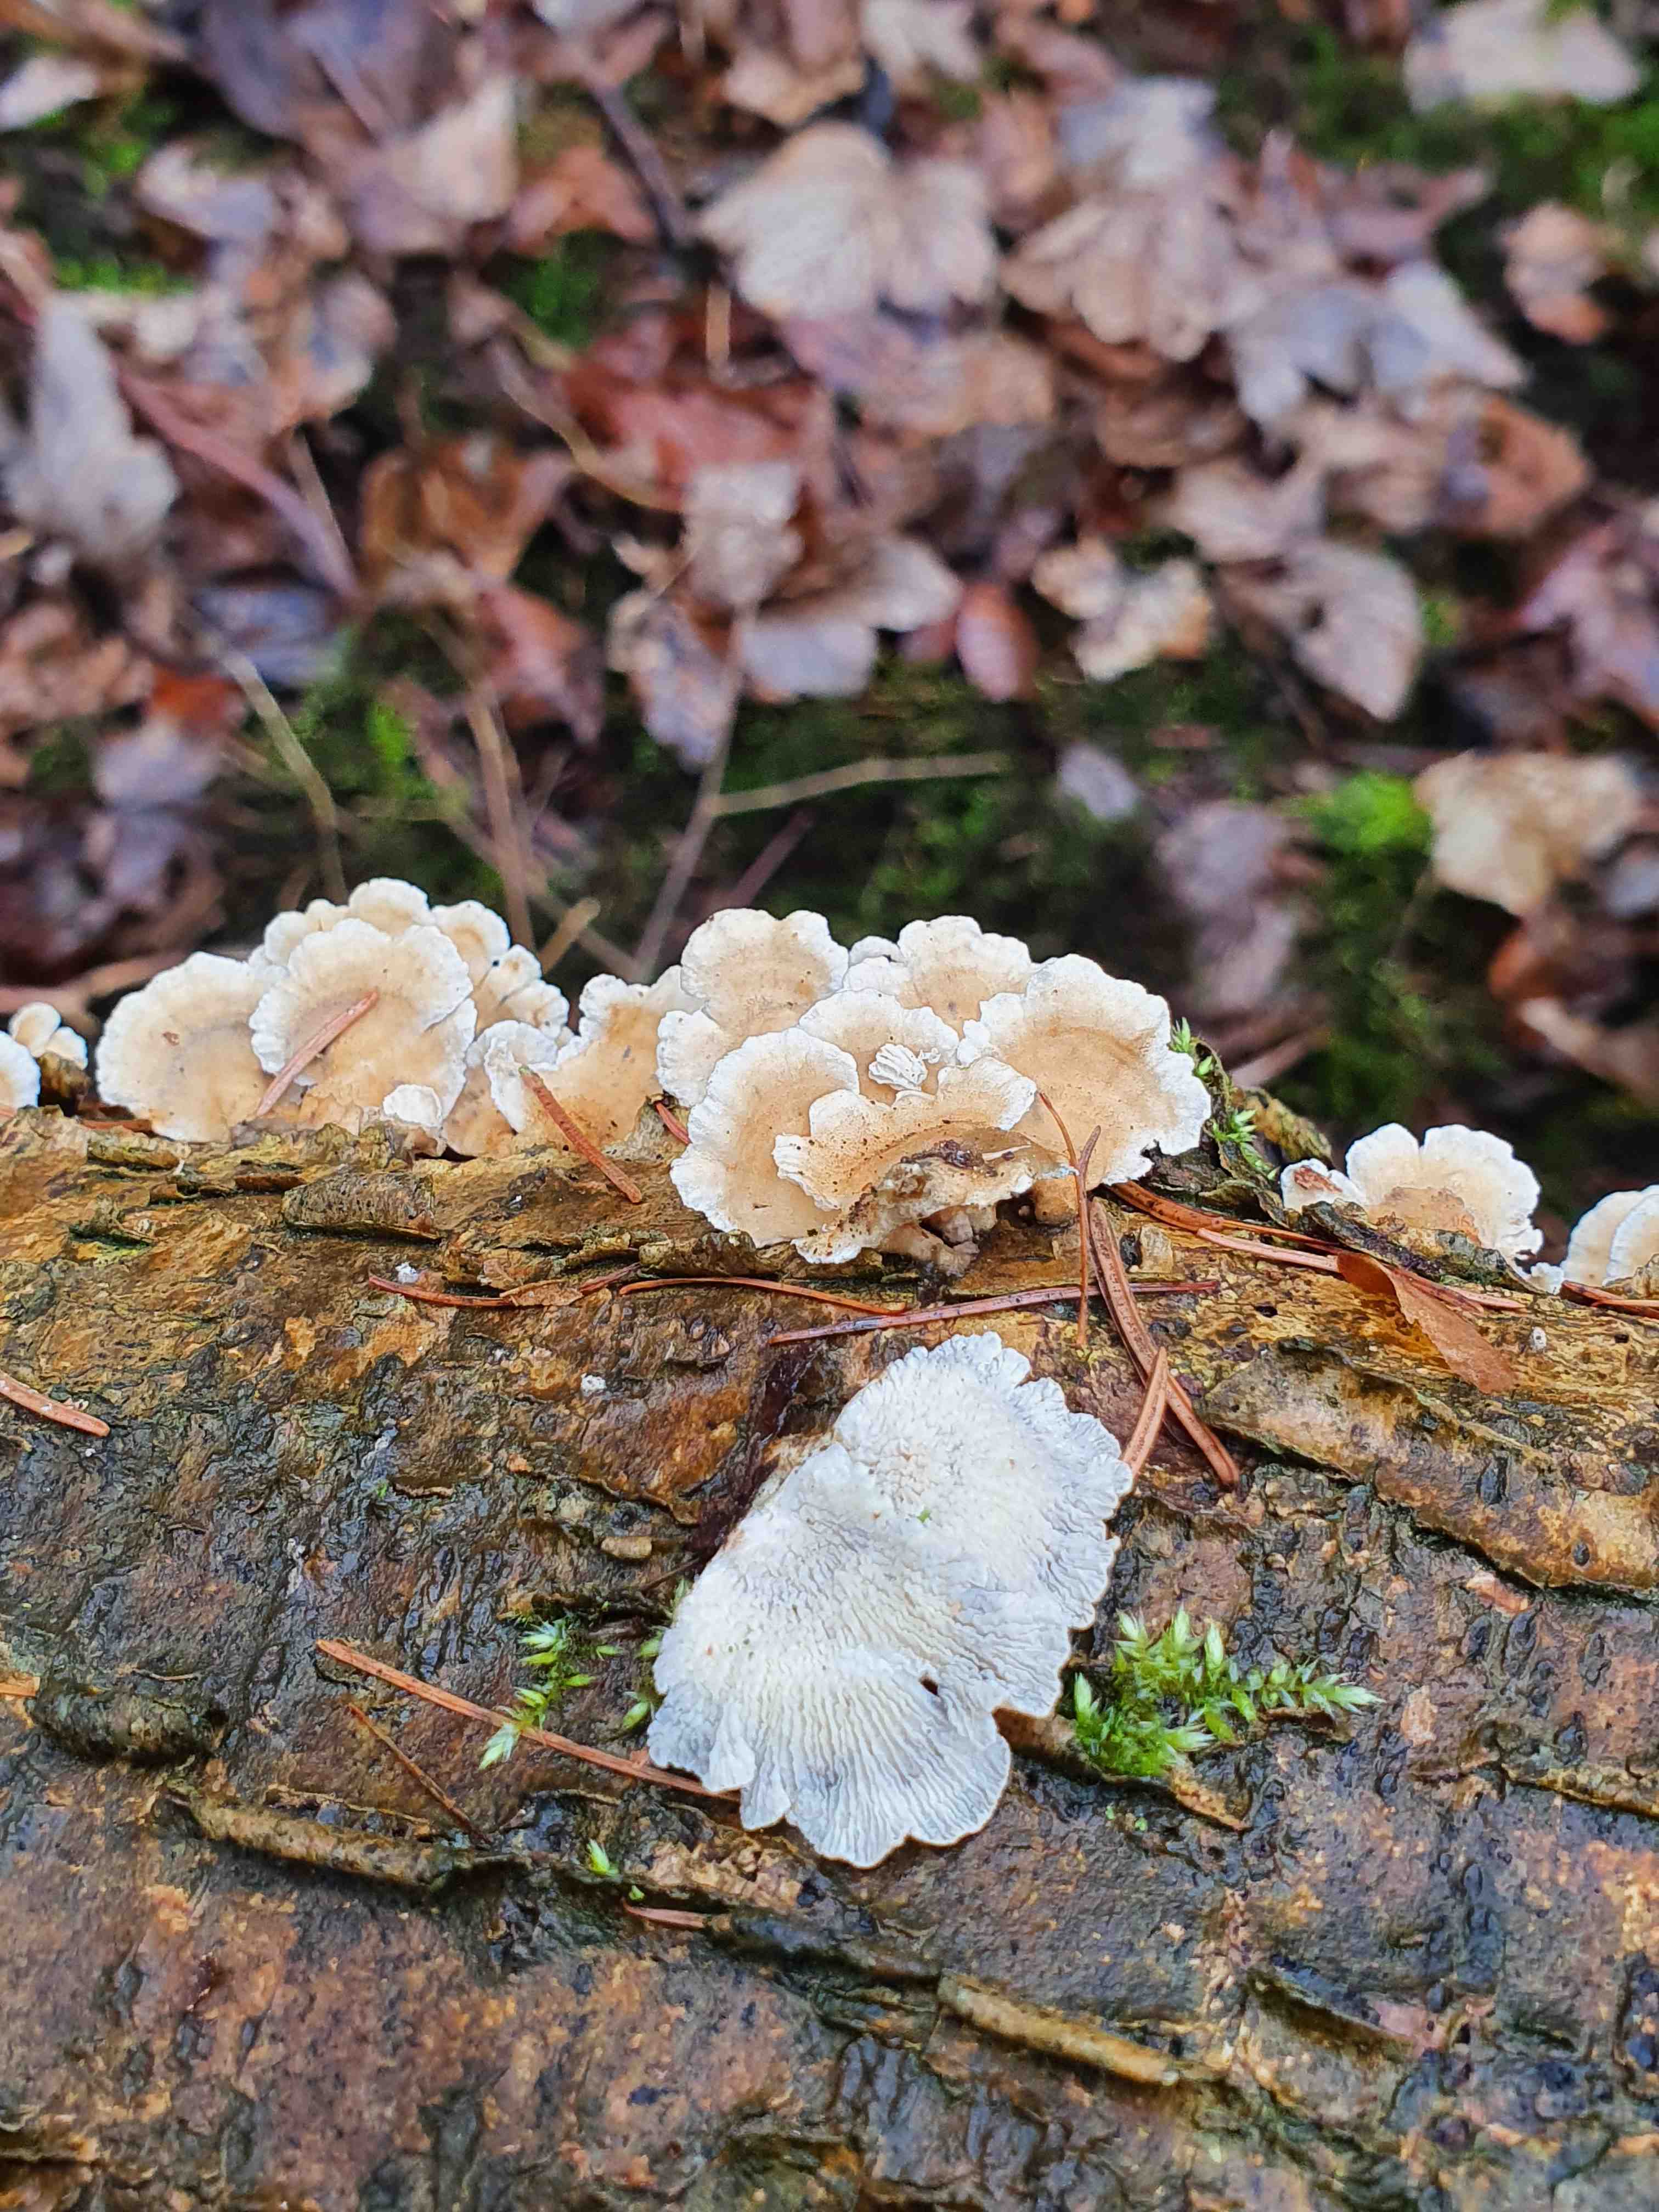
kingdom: Fungi
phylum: Basidiomycota
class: Agaricomycetes
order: Amylocorticiales
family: Amylocorticiaceae
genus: Plicaturopsis
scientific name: Plicaturopsis crispa
